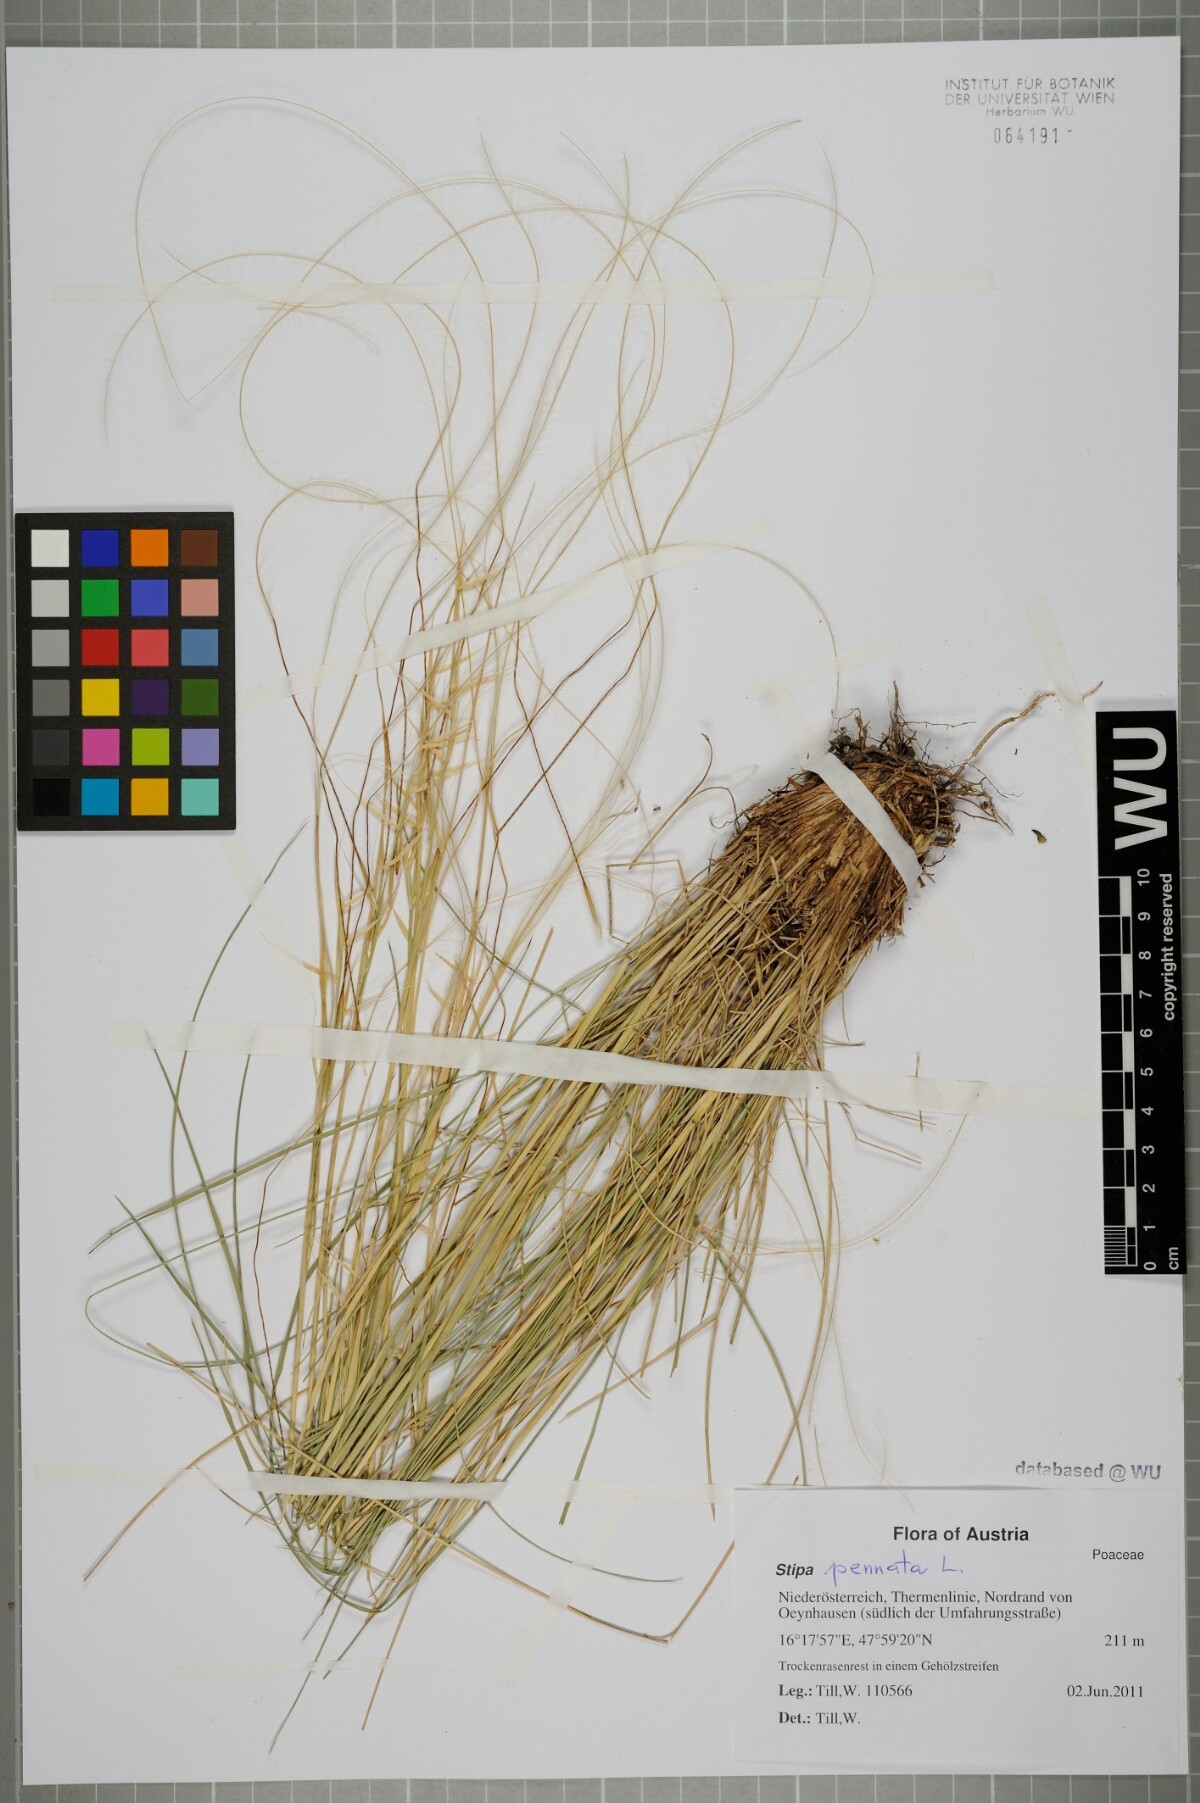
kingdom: Plantae
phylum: Tracheophyta
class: Liliopsida
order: Poales
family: Poaceae
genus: Stipa
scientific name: Stipa pennata
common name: European feather grass
